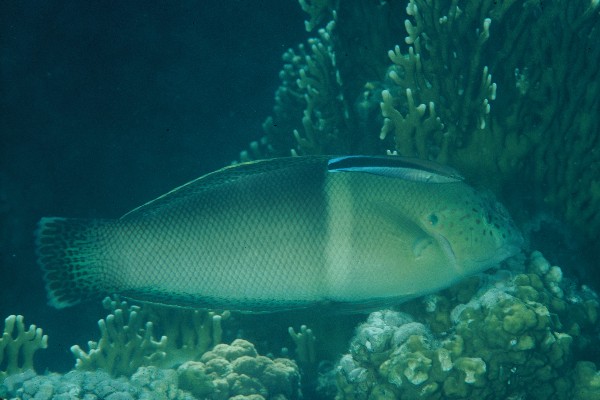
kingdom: Animalia
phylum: Chordata
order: Perciformes
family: Labridae
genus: Coris
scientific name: Coris aygula
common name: Clown coris
